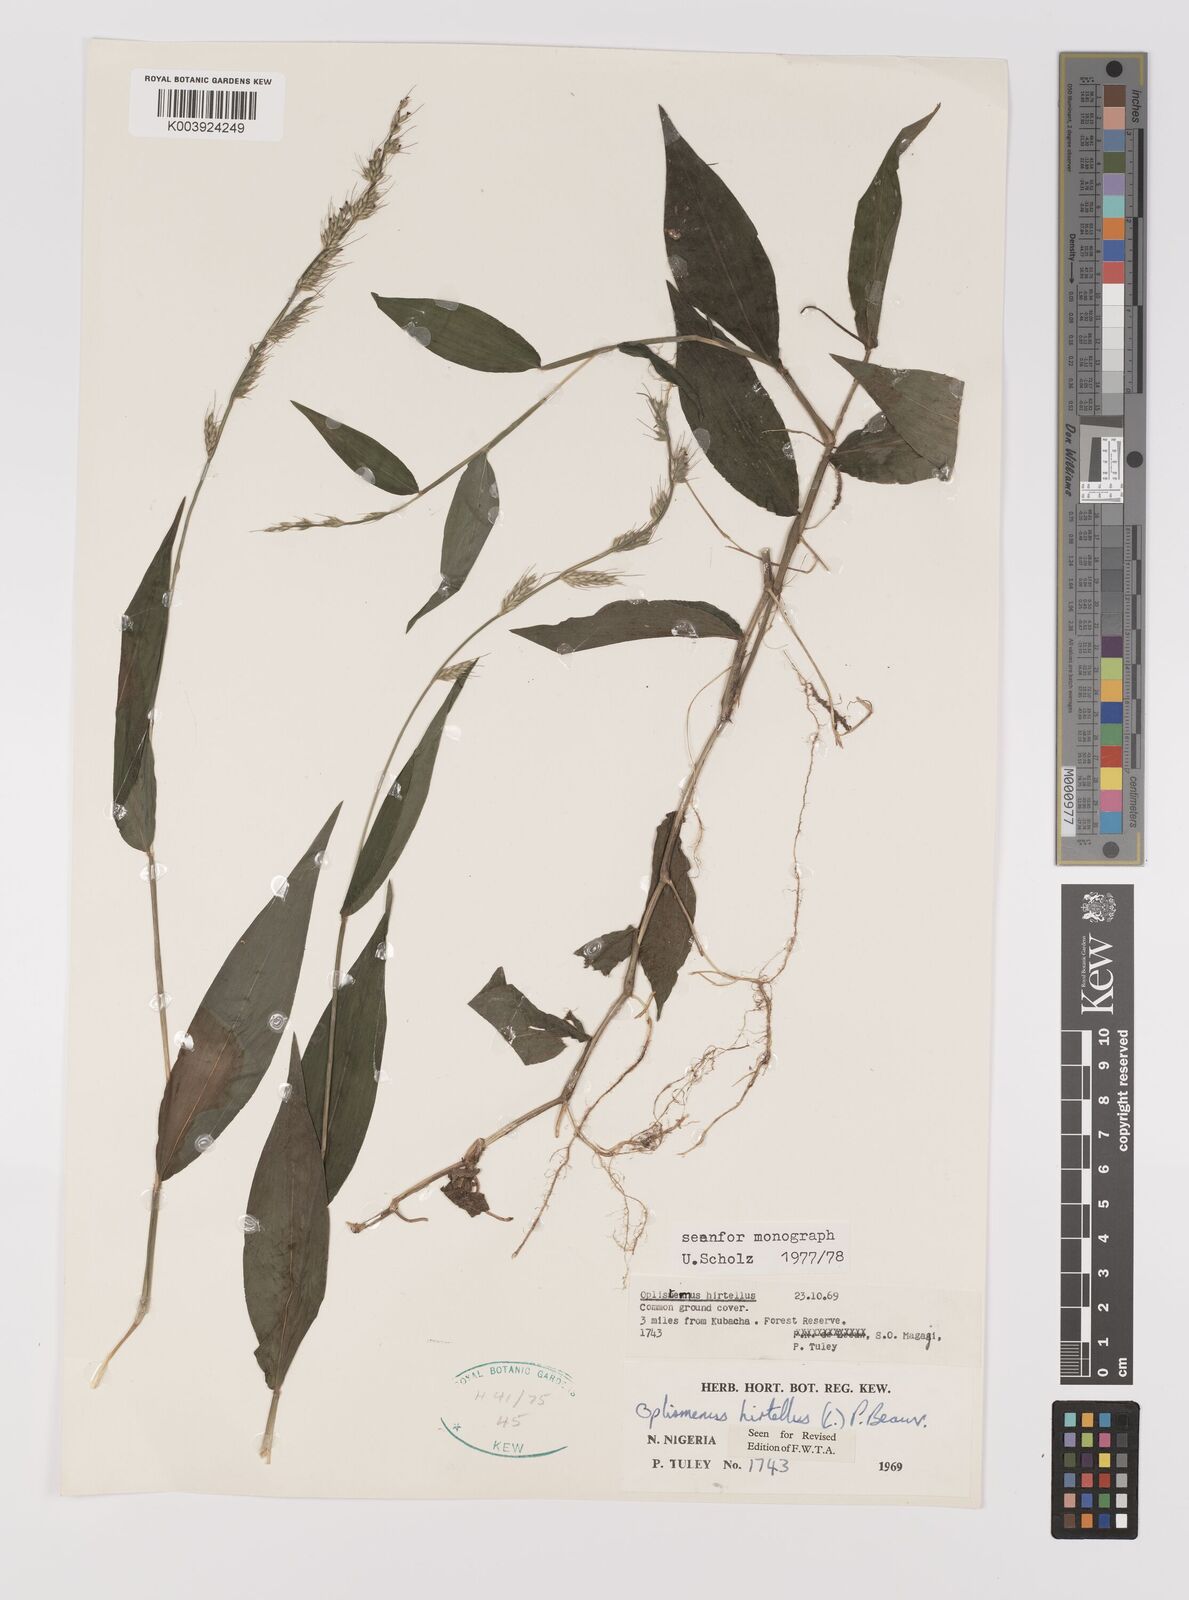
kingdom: Plantae
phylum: Tracheophyta
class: Liliopsida
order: Poales
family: Poaceae
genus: Oplismenus
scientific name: Oplismenus hirtellus
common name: Basketgrass
